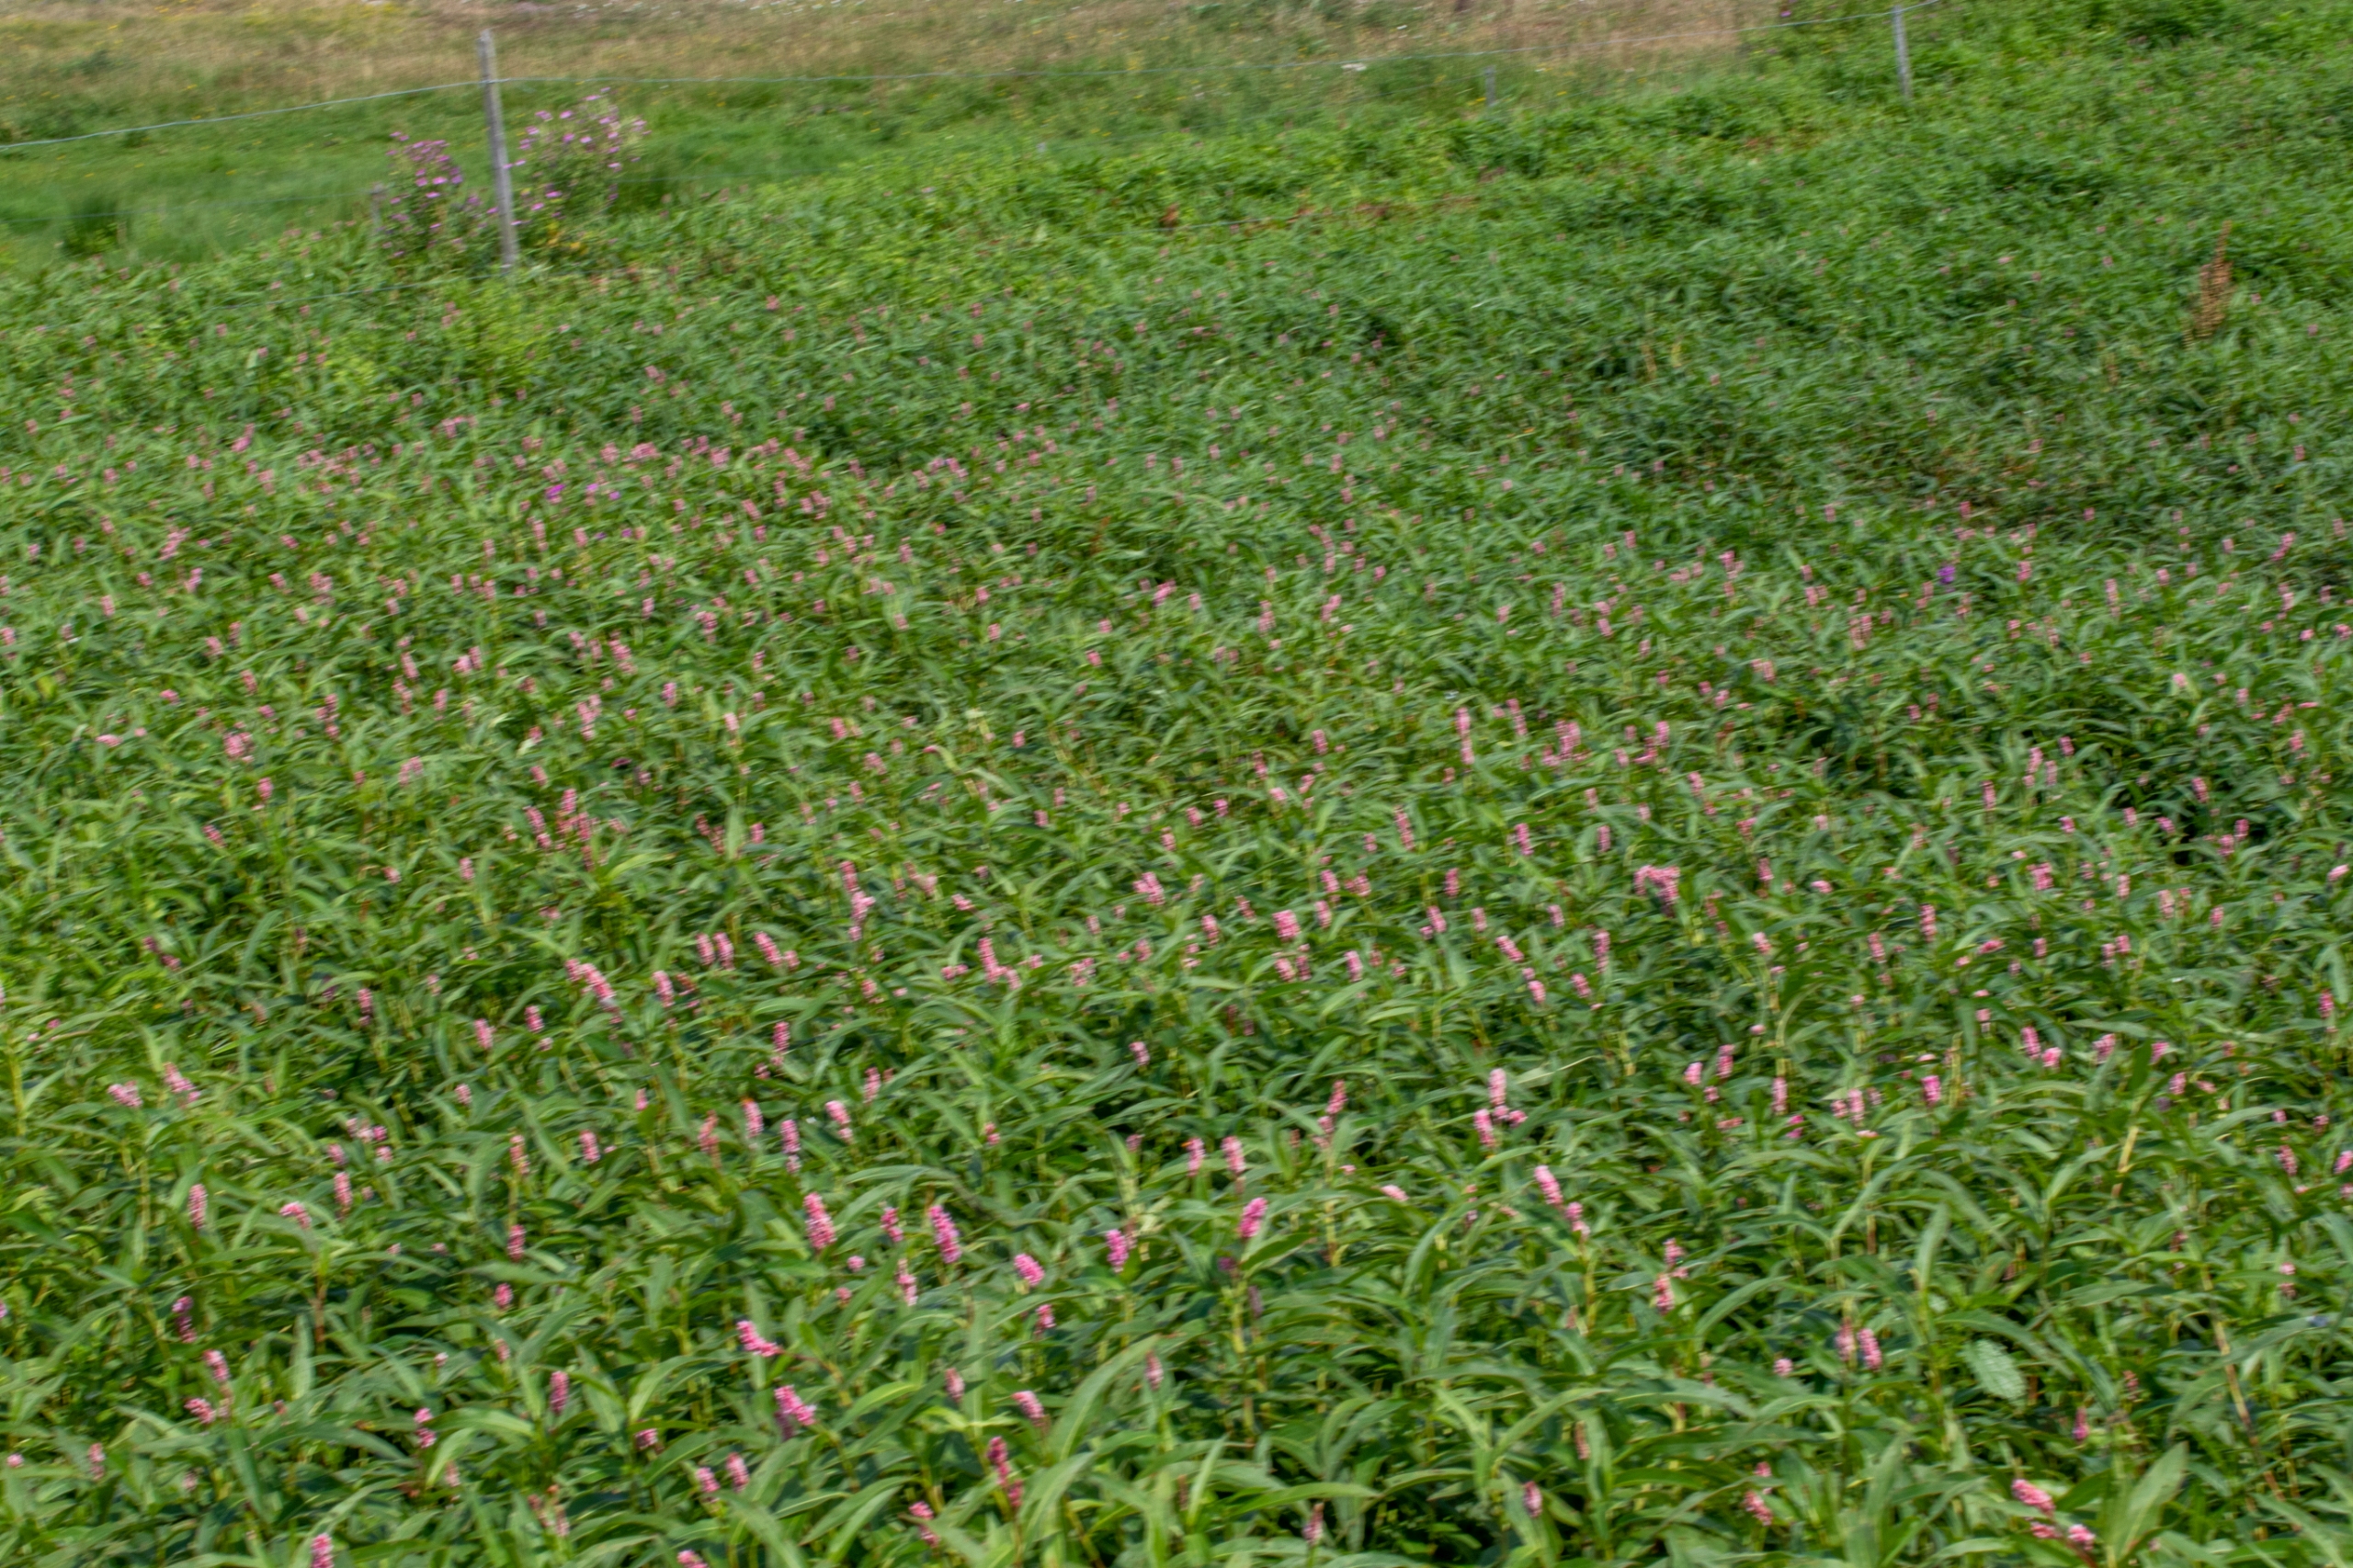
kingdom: Plantae
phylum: Tracheophyta
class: Magnoliopsida
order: Caryophyllales
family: Polygonaceae
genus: Persicaria
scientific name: Persicaria amphibia
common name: Vand-pileurt
